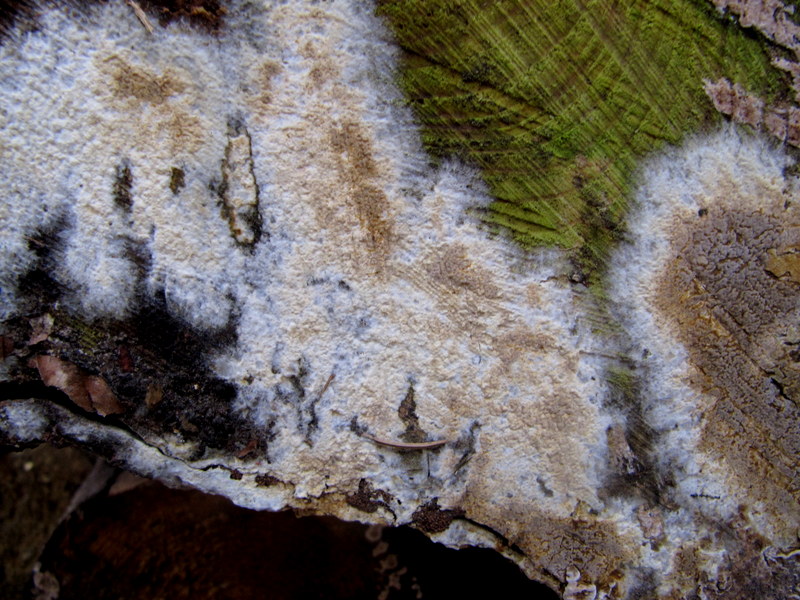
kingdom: Fungi
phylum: Basidiomycota
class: Agaricomycetes
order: Boletales
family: Coniophoraceae
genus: Coniophora
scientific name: Coniophora puteana
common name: gul tømmersvamp
